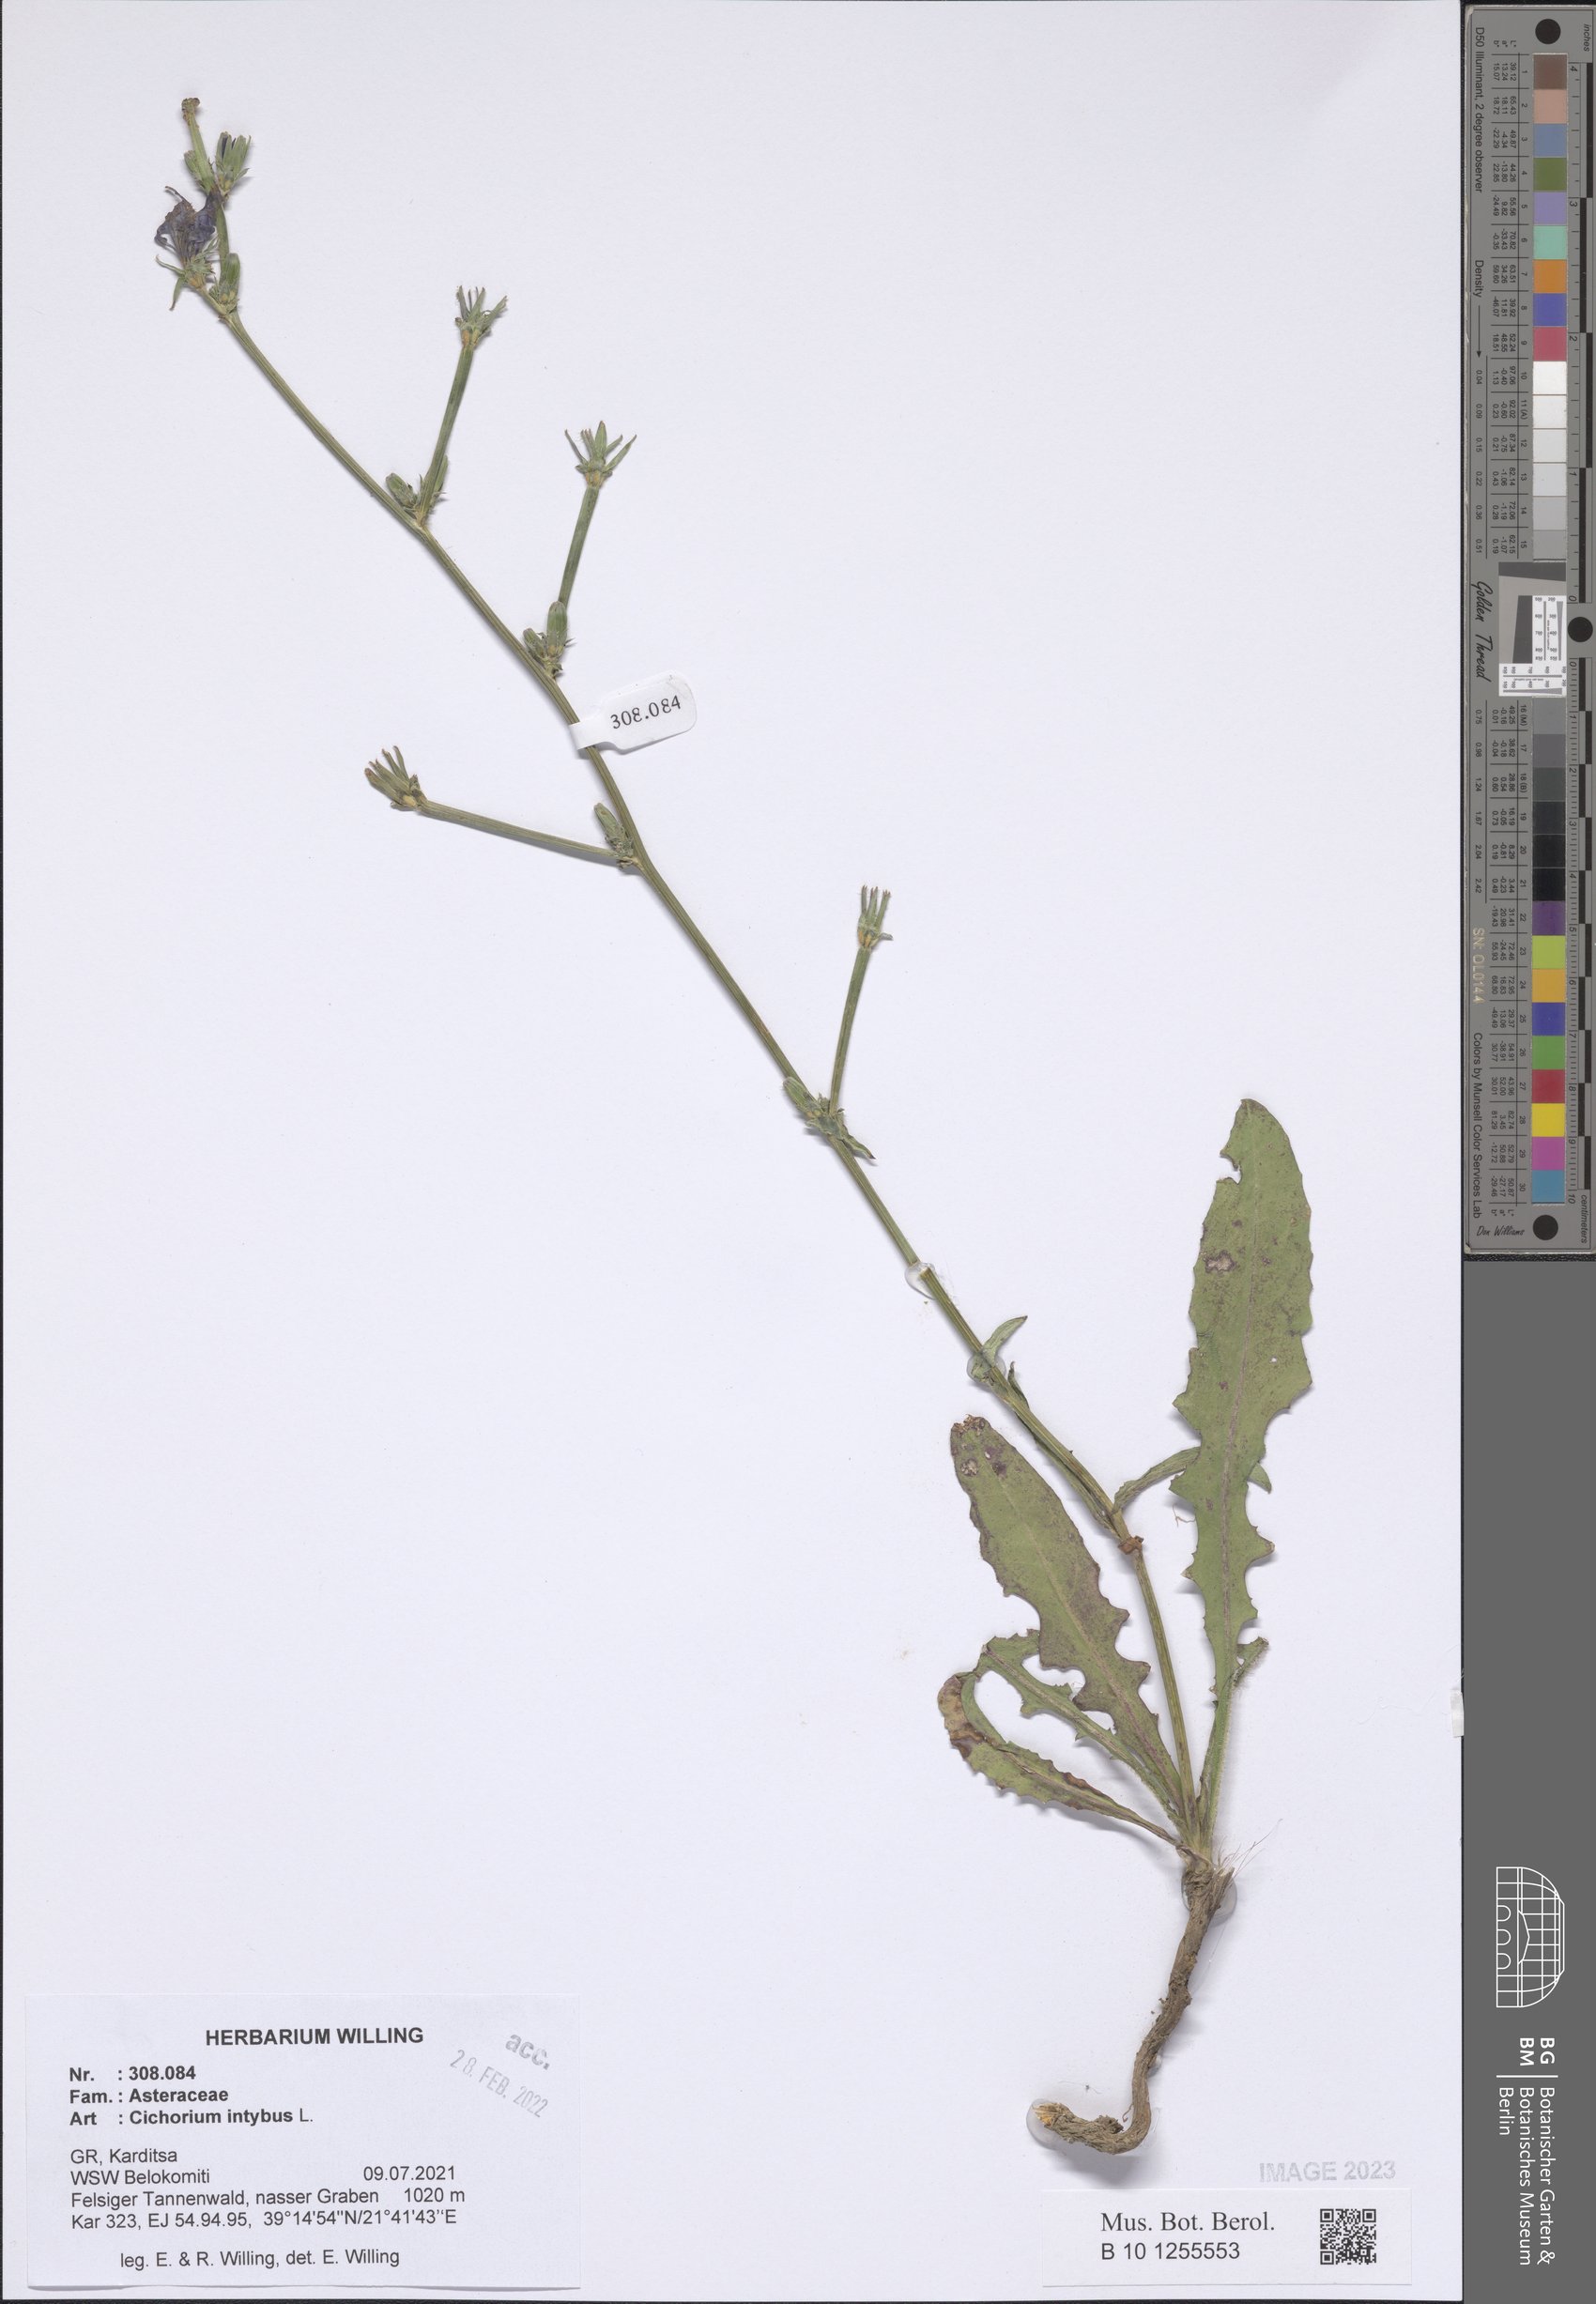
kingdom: Plantae
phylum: Tracheophyta
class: Magnoliopsida
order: Asterales
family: Asteraceae
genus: Cichorium
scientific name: Cichorium intybus
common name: Chicory
